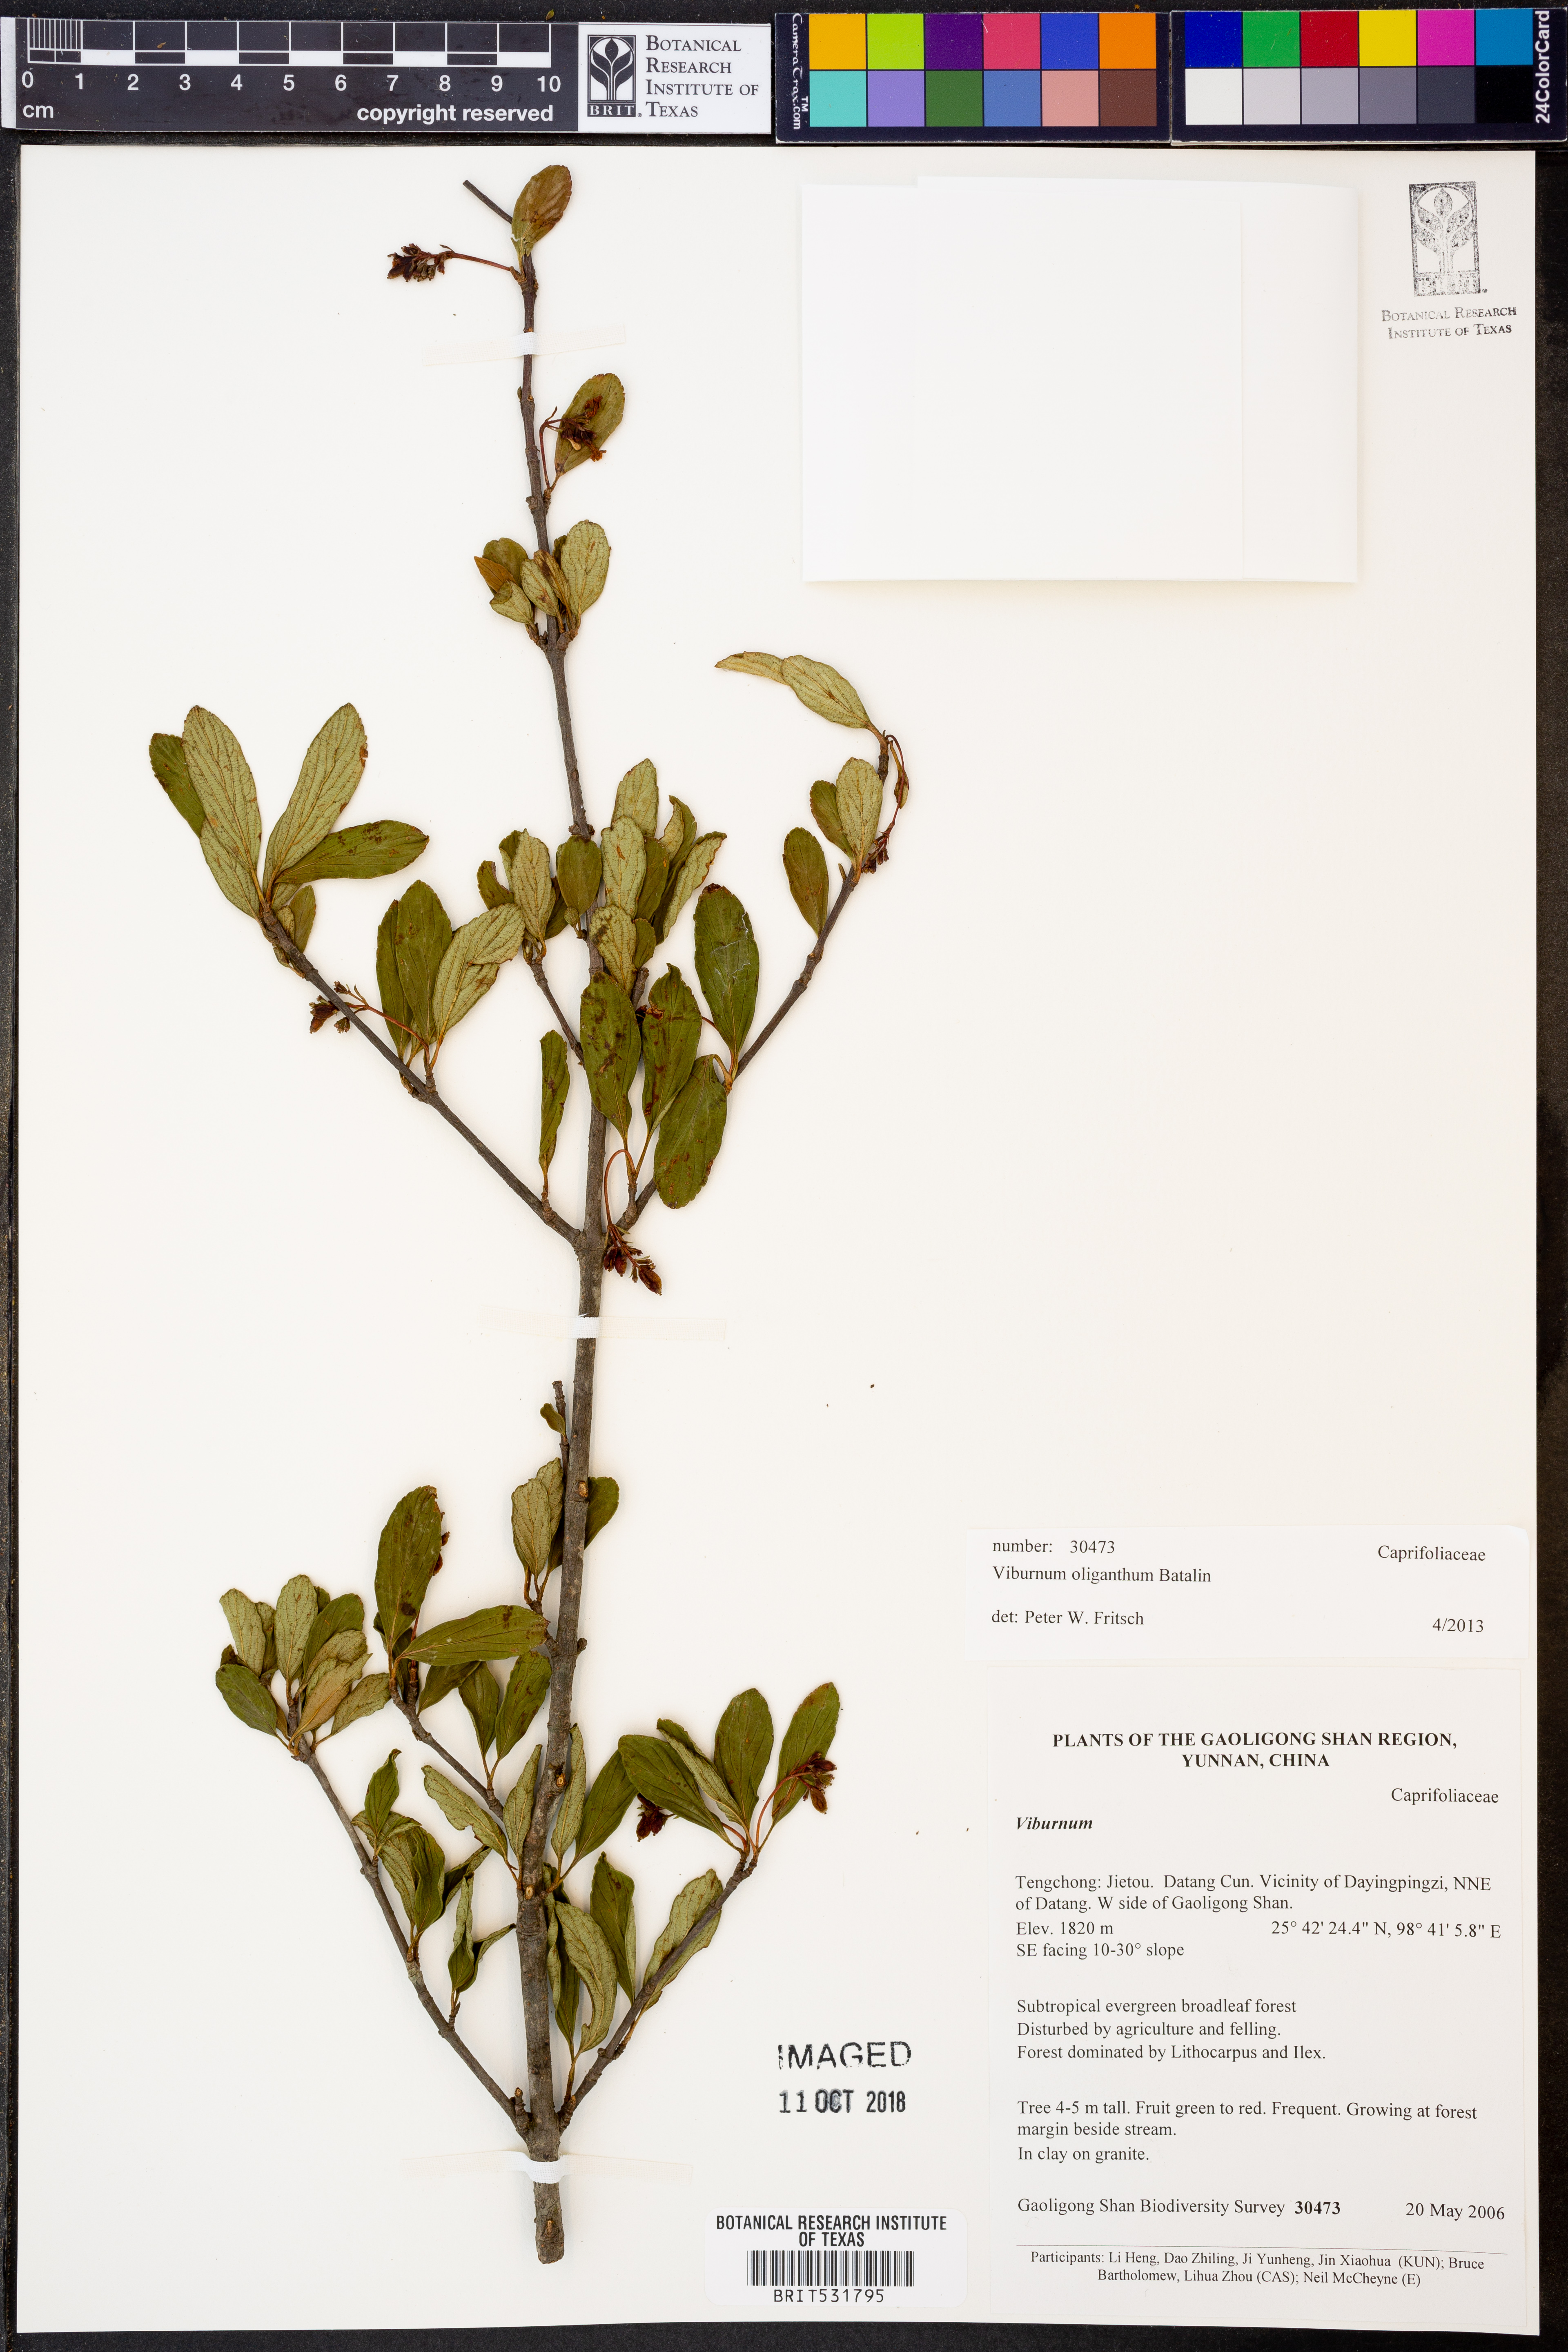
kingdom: Plantae
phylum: Tracheophyta
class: Magnoliopsida
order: Dipsacales
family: Viburnaceae
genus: Viburnum
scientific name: Viburnum oliganthum
